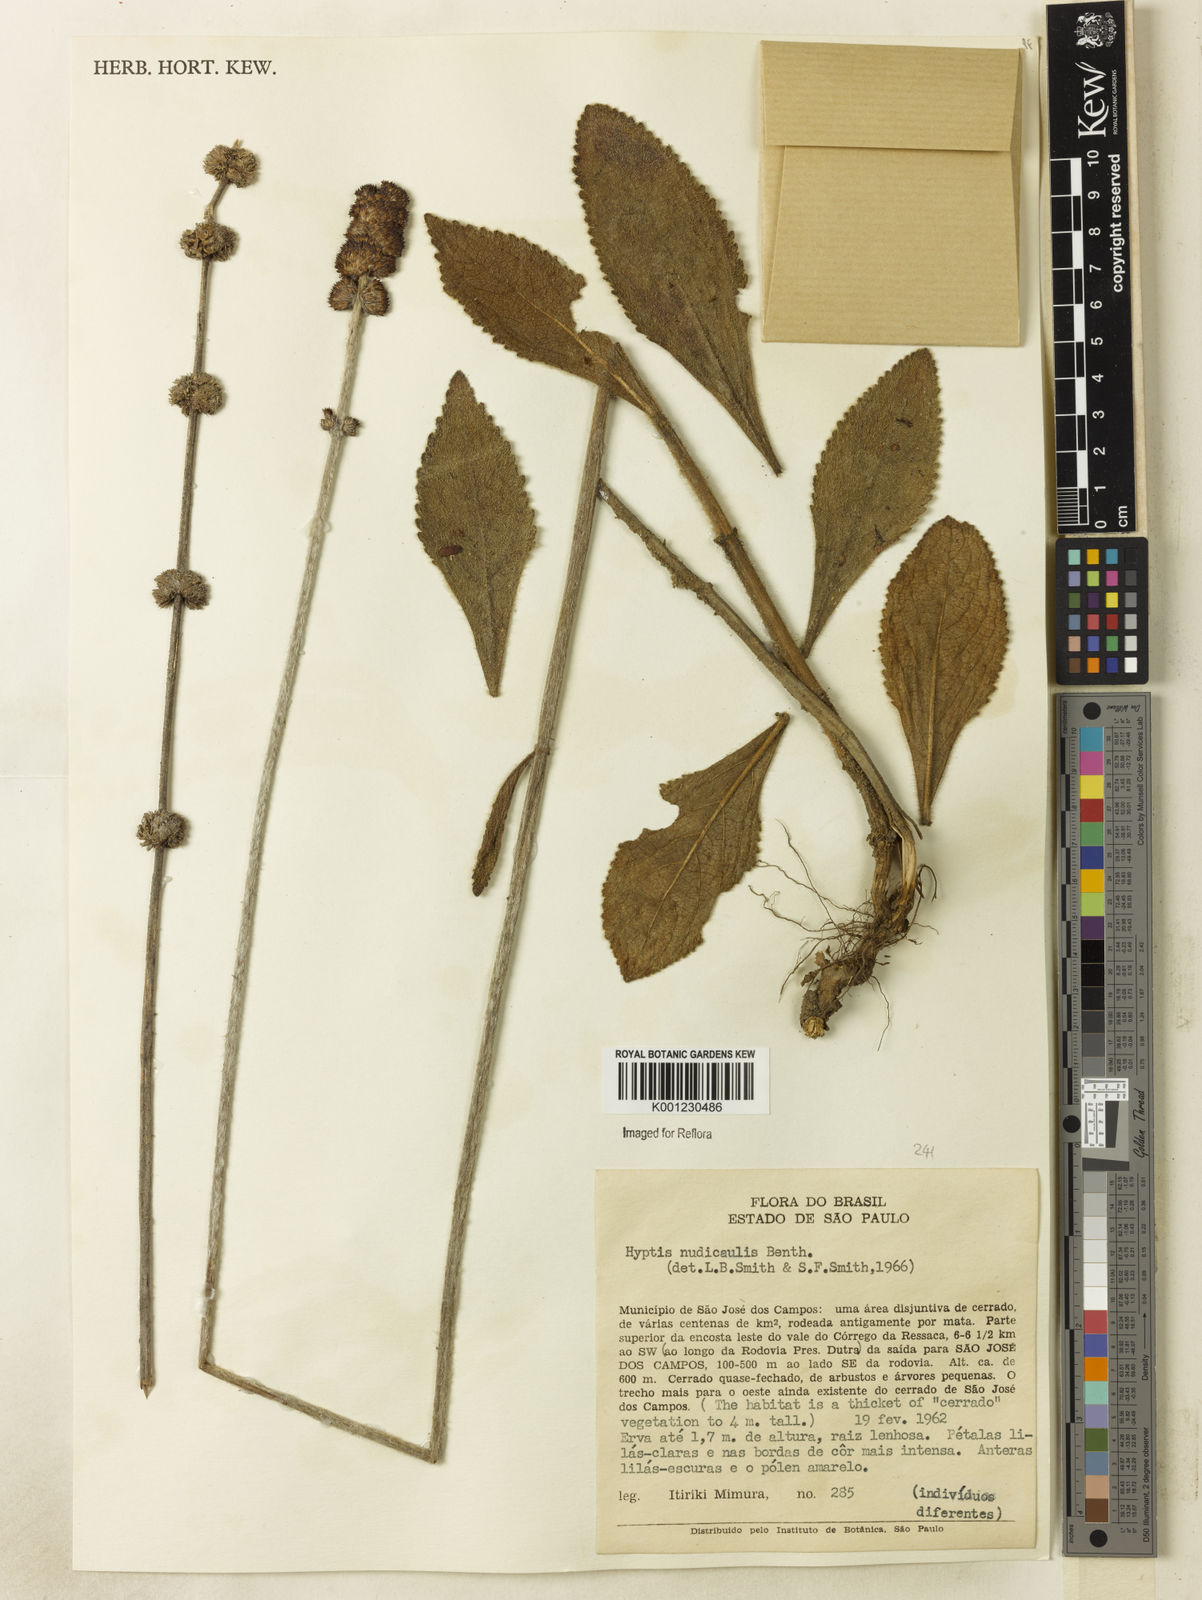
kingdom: Plantae
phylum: Tracheophyta
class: Magnoliopsida
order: Lamiales
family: Lamiaceae
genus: Hyptis
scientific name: Hyptis nudicaulis
